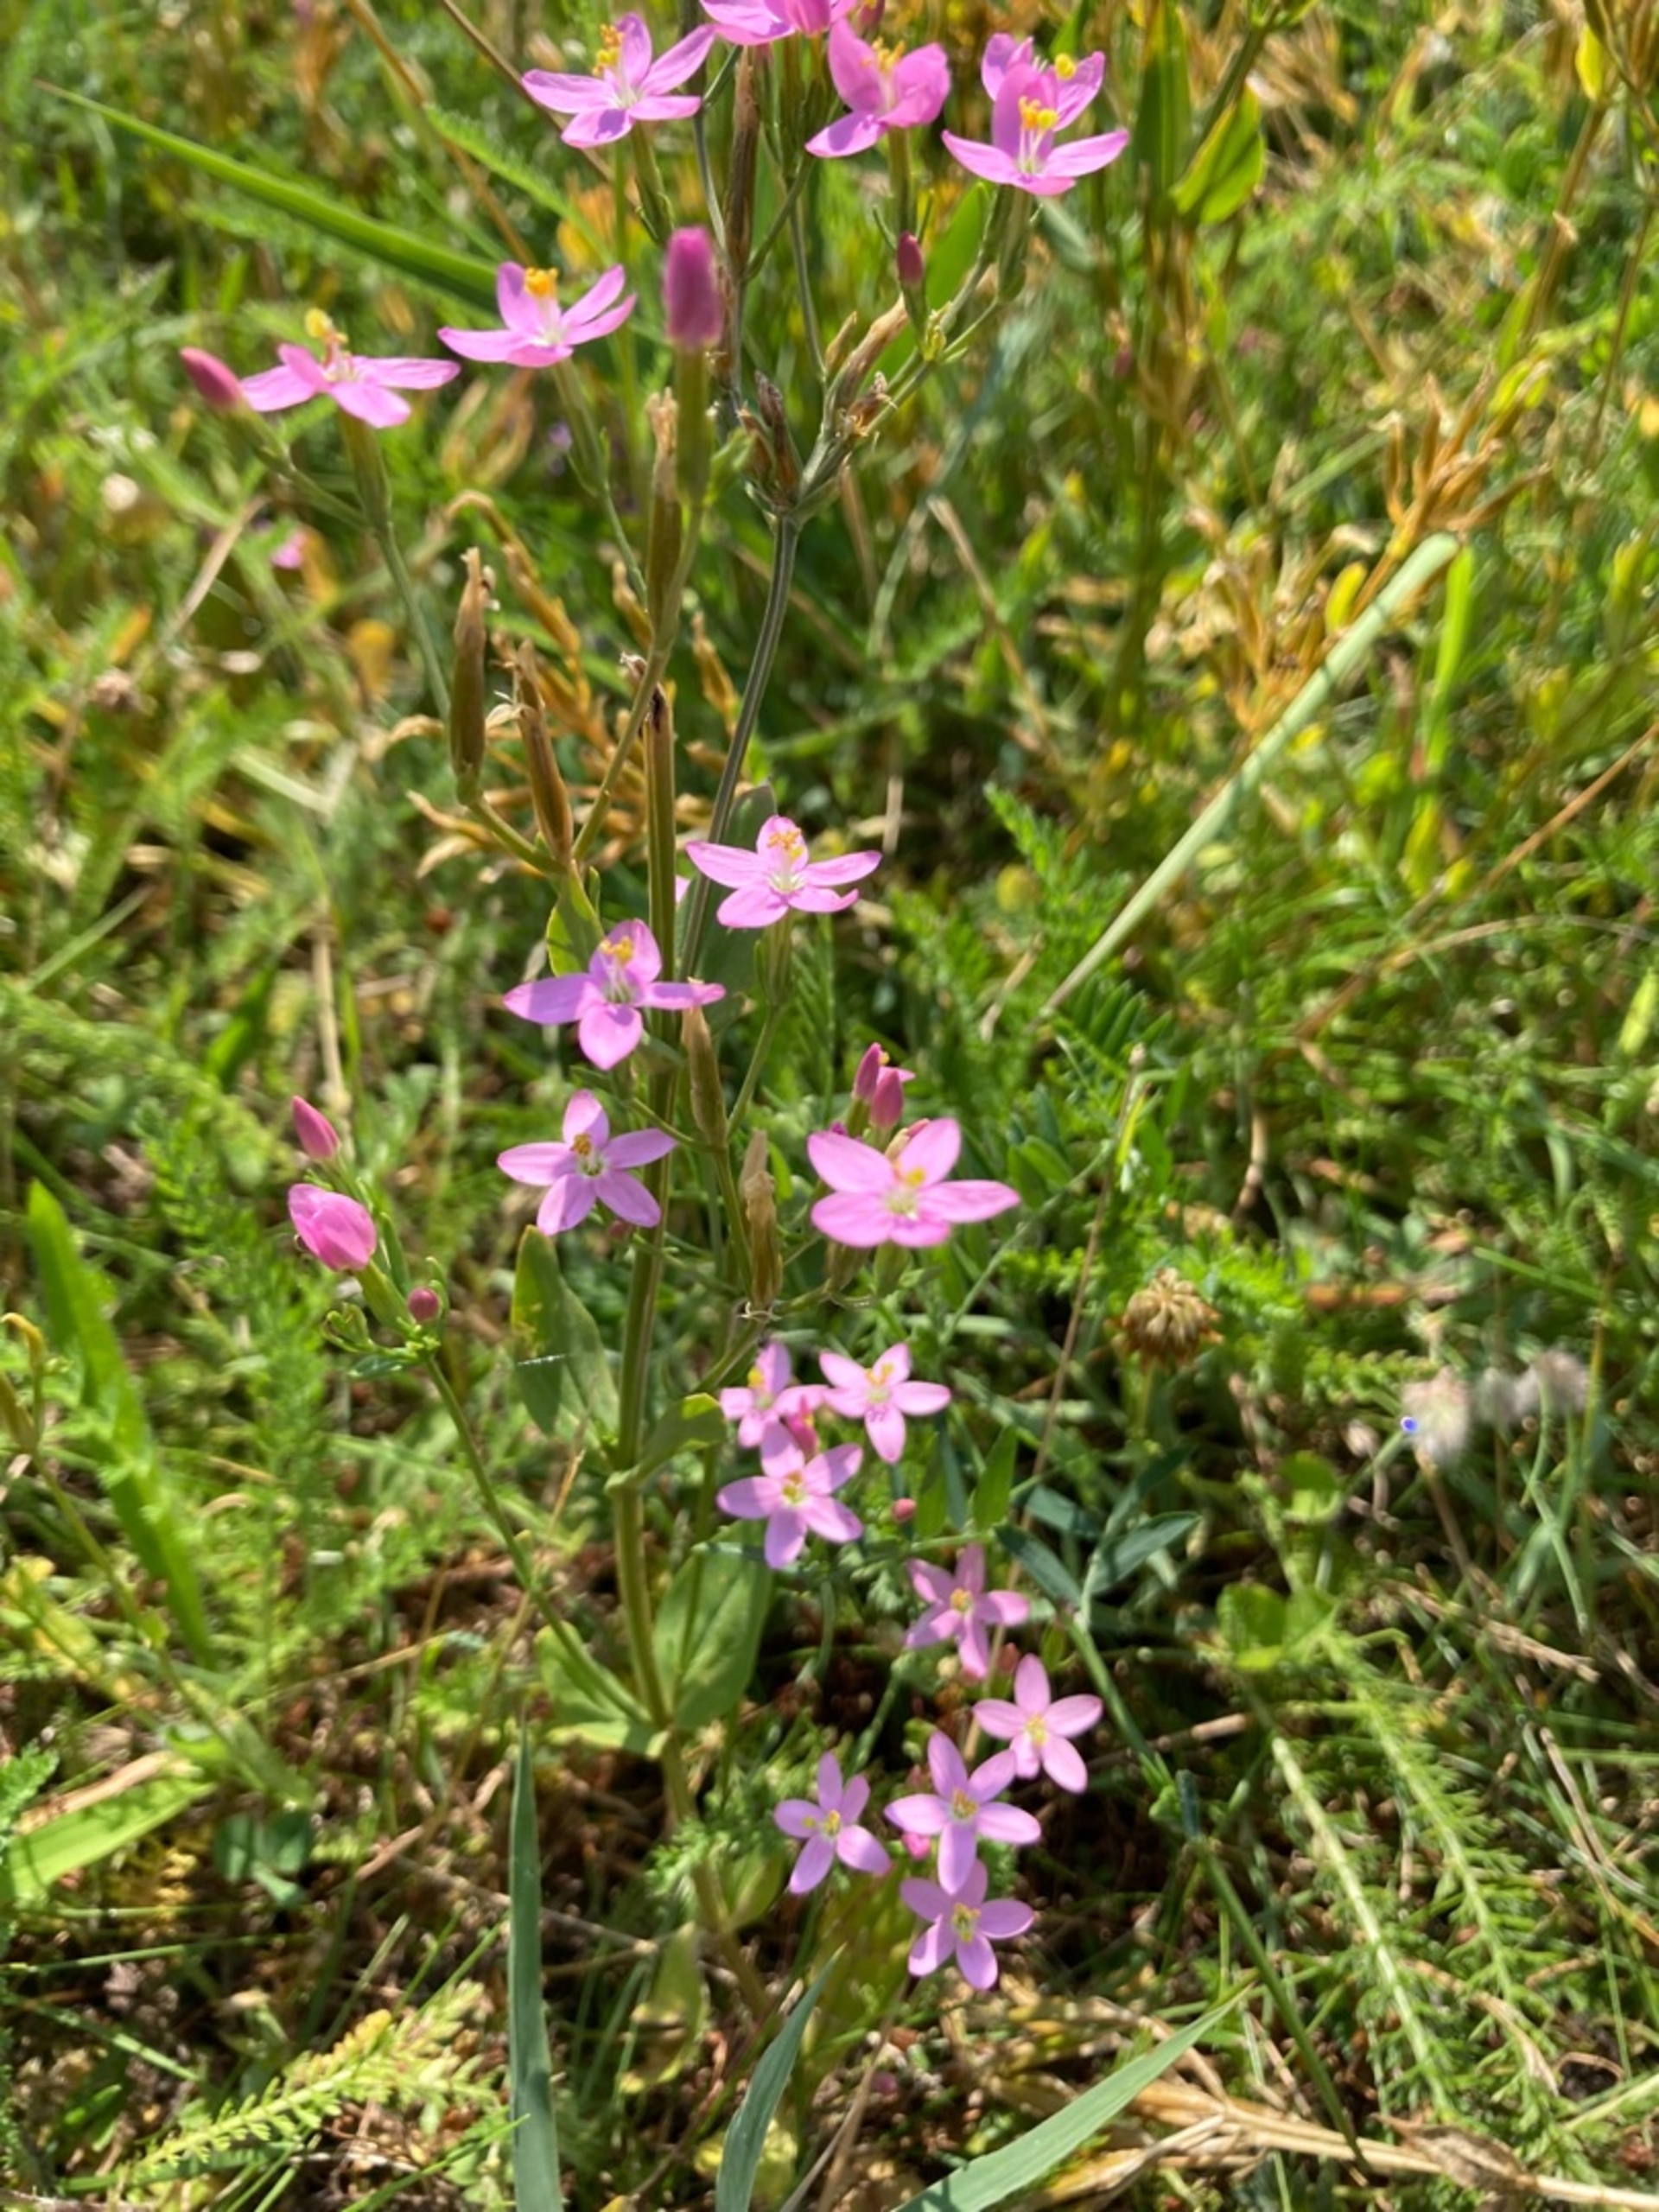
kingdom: Plantae
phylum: Tracheophyta
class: Magnoliopsida
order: Gentianales
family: Gentianaceae
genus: Centaurium
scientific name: Centaurium erythraea
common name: Mark-tusindgylden
